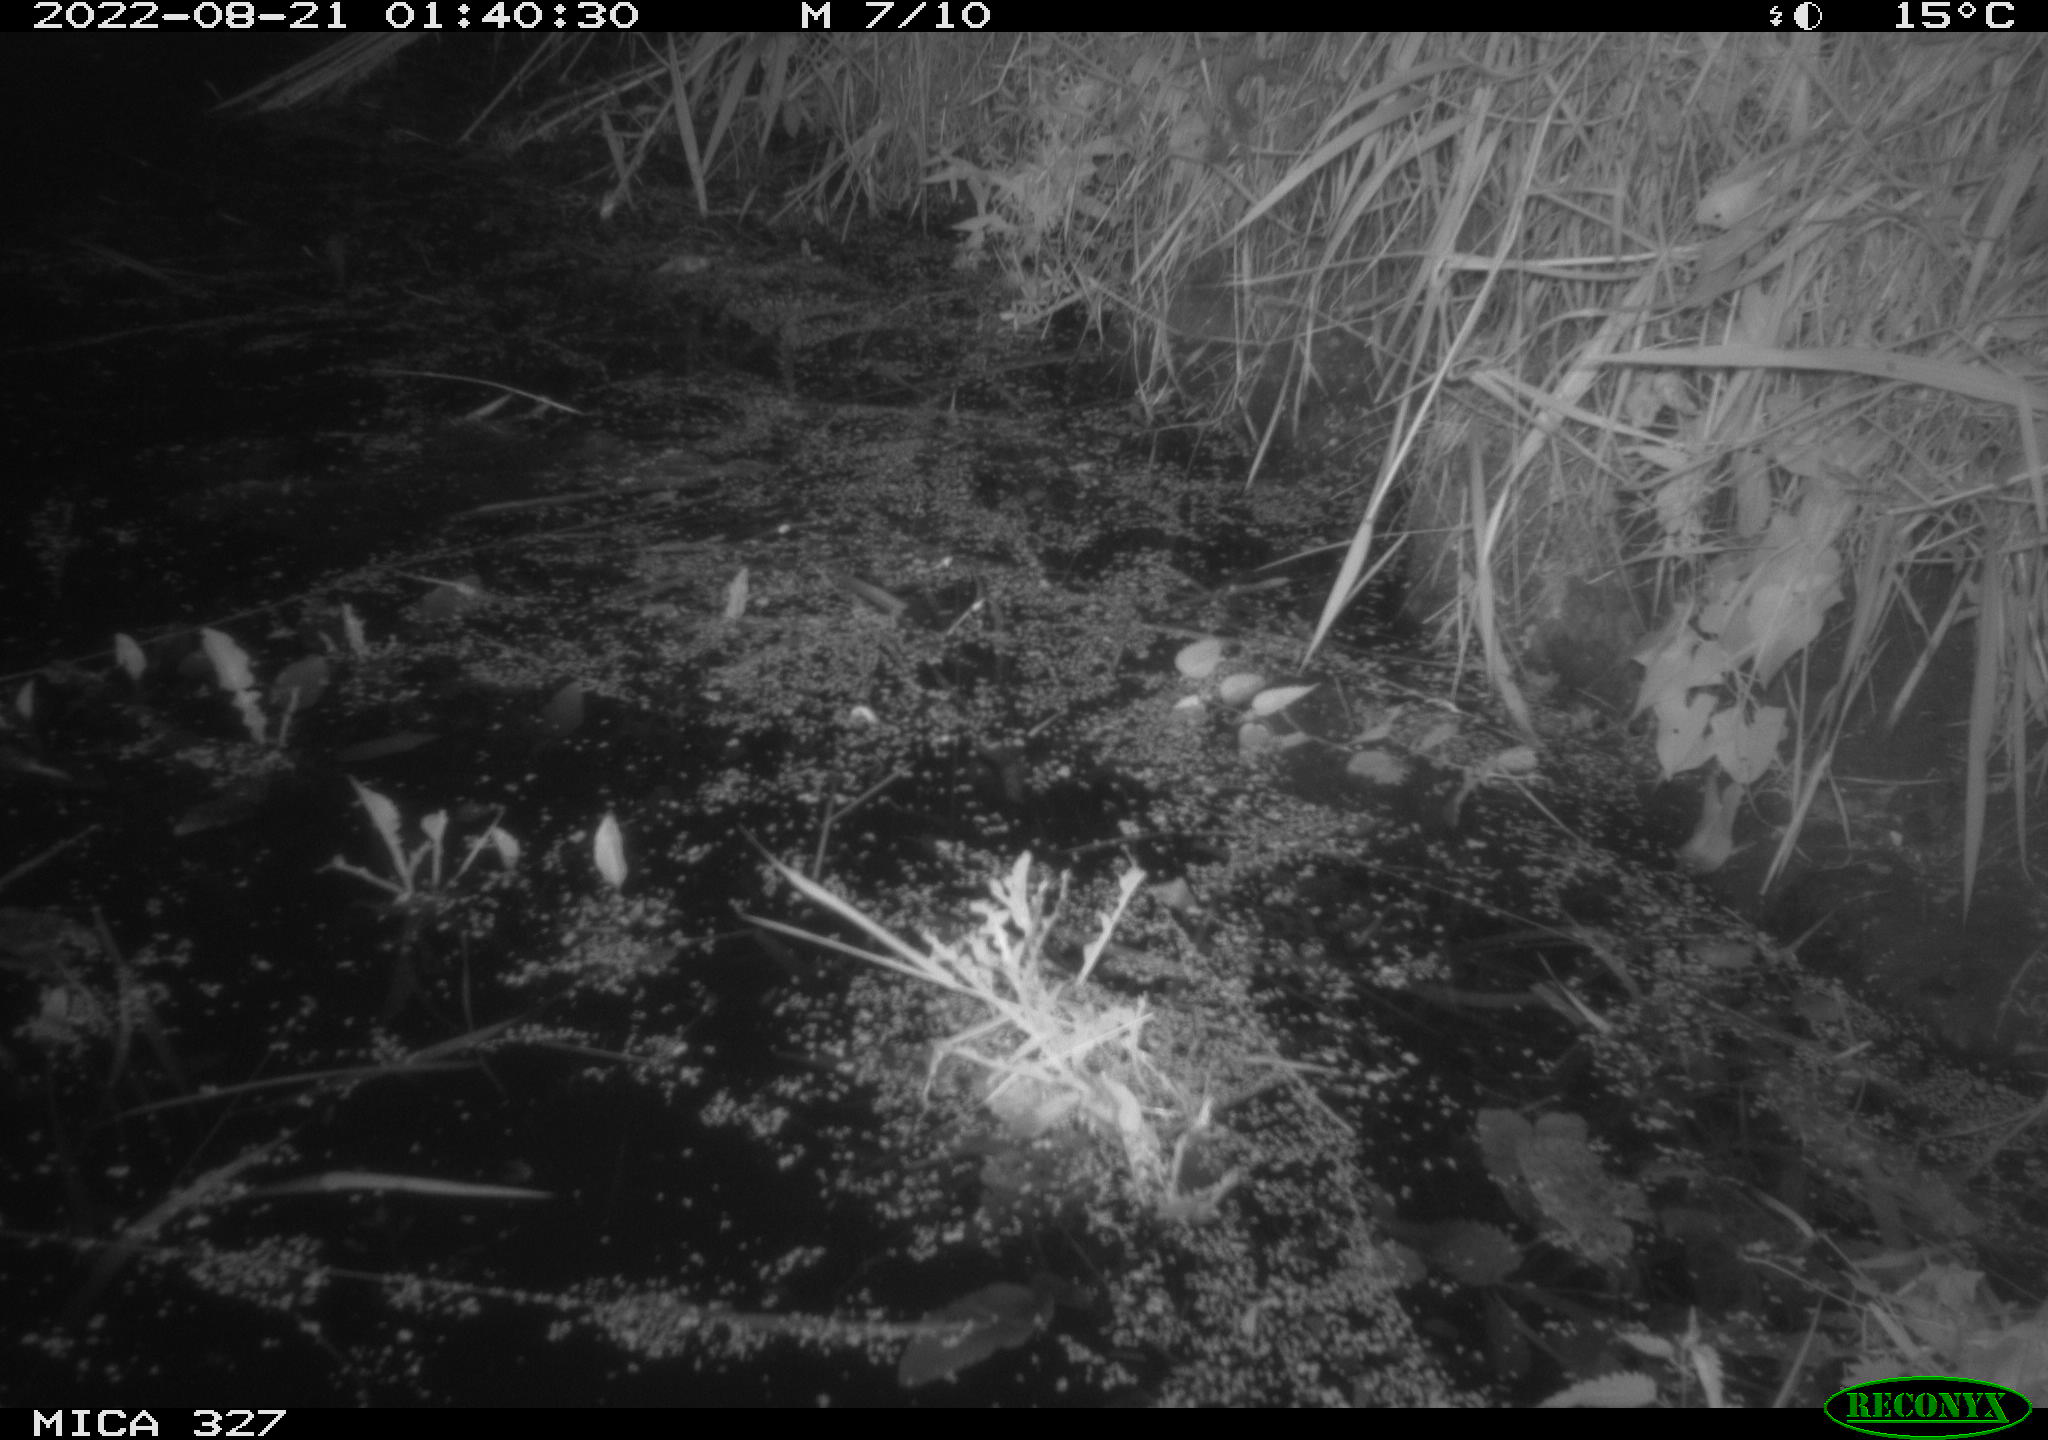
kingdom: Animalia
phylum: Chordata
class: Mammalia
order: Rodentia
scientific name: Rodentia
